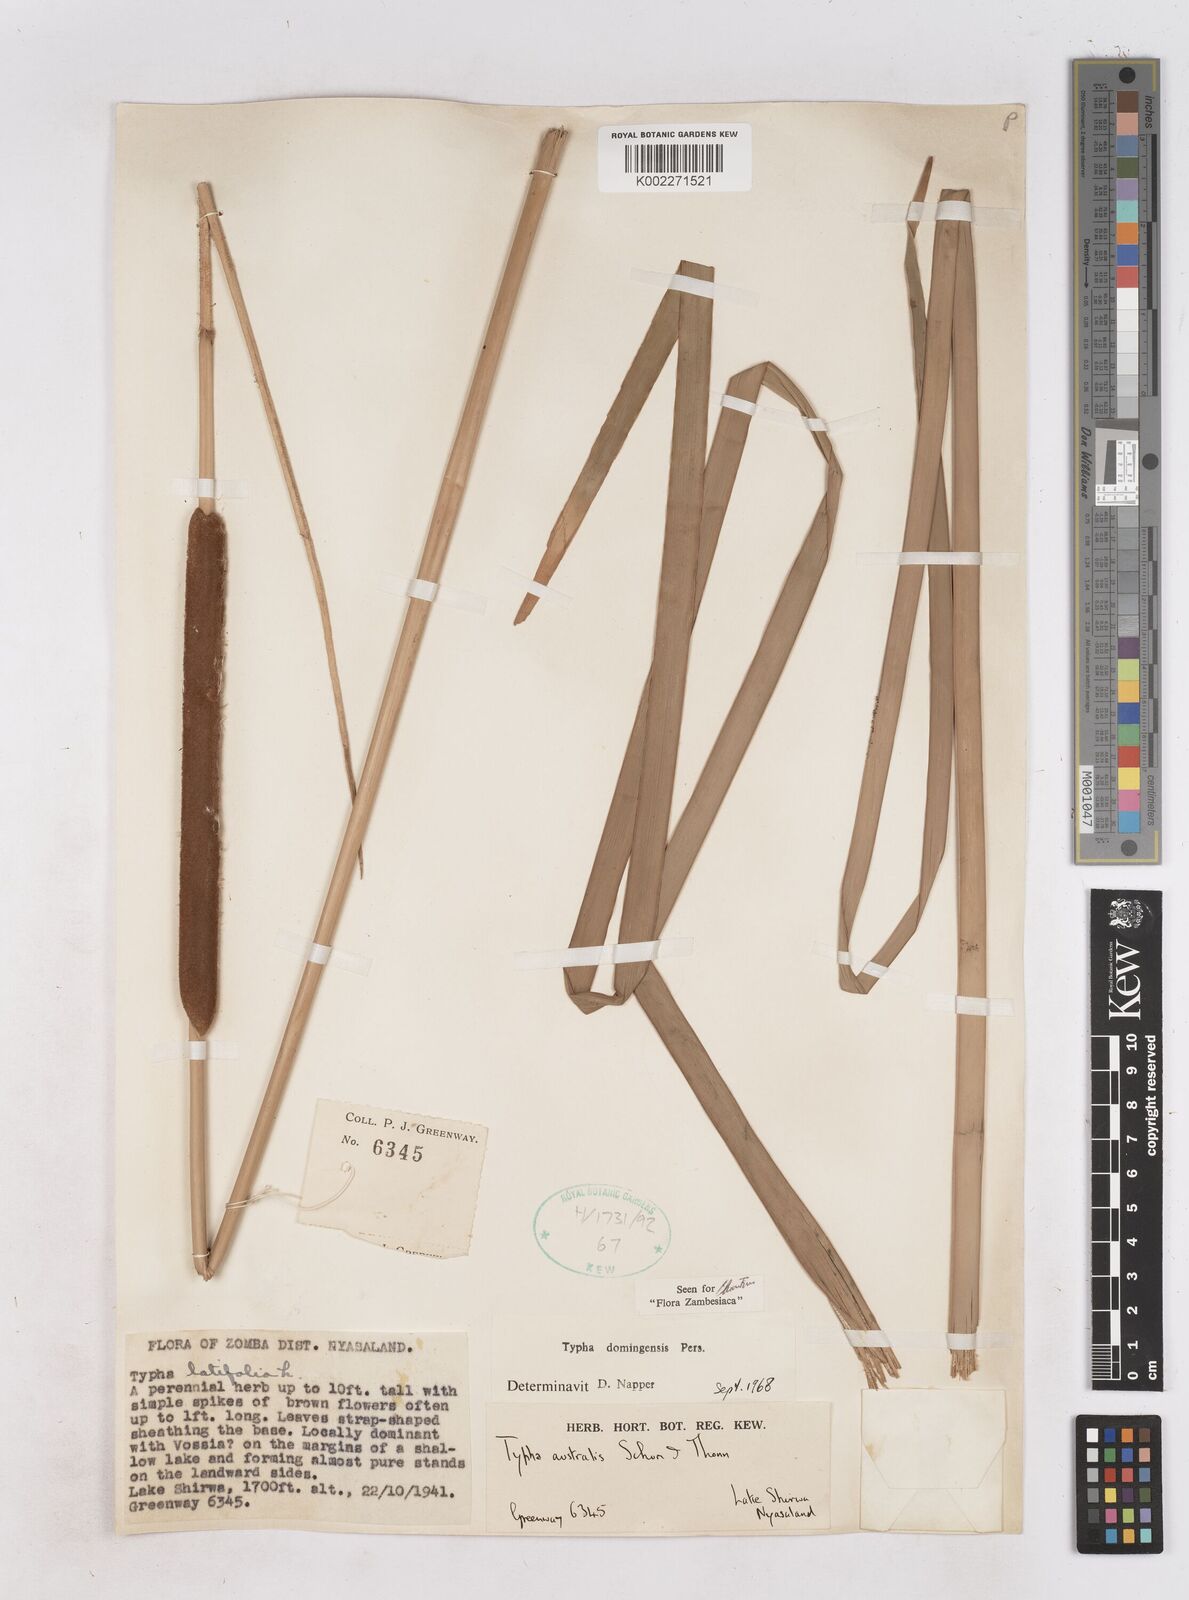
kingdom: Plantae
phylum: Tracheophyta
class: Liliopsida
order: Poales
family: Typhaceae
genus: Typha
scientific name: Typha domingensis
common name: Southern cattail
